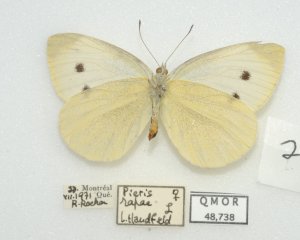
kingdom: Animalia
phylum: Arthropoda
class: Insecta
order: Lepidoptera
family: Pieridae
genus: Pieris
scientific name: Pieris rapae
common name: Cabbage White
